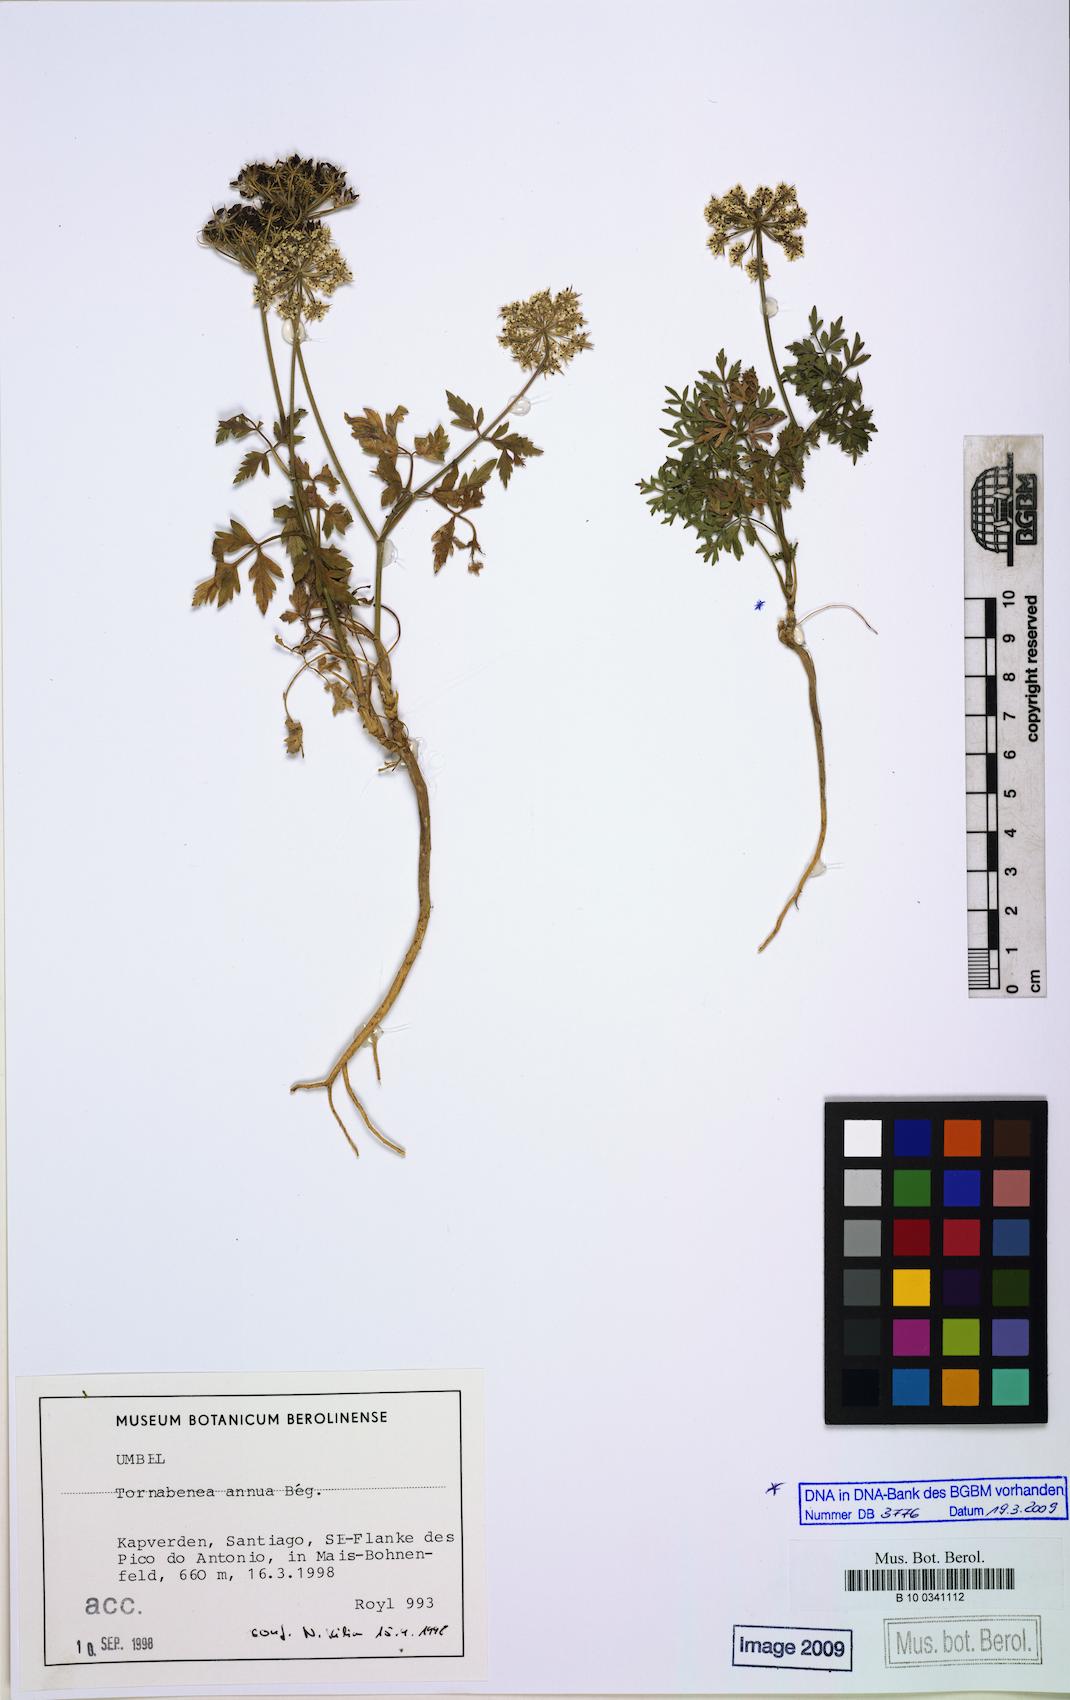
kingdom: Plantae
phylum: Tracheophyta
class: Magnoliopsida
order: Apiales
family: Apiaceae
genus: Daucus
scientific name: Daucus carota
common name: Wild carrot
